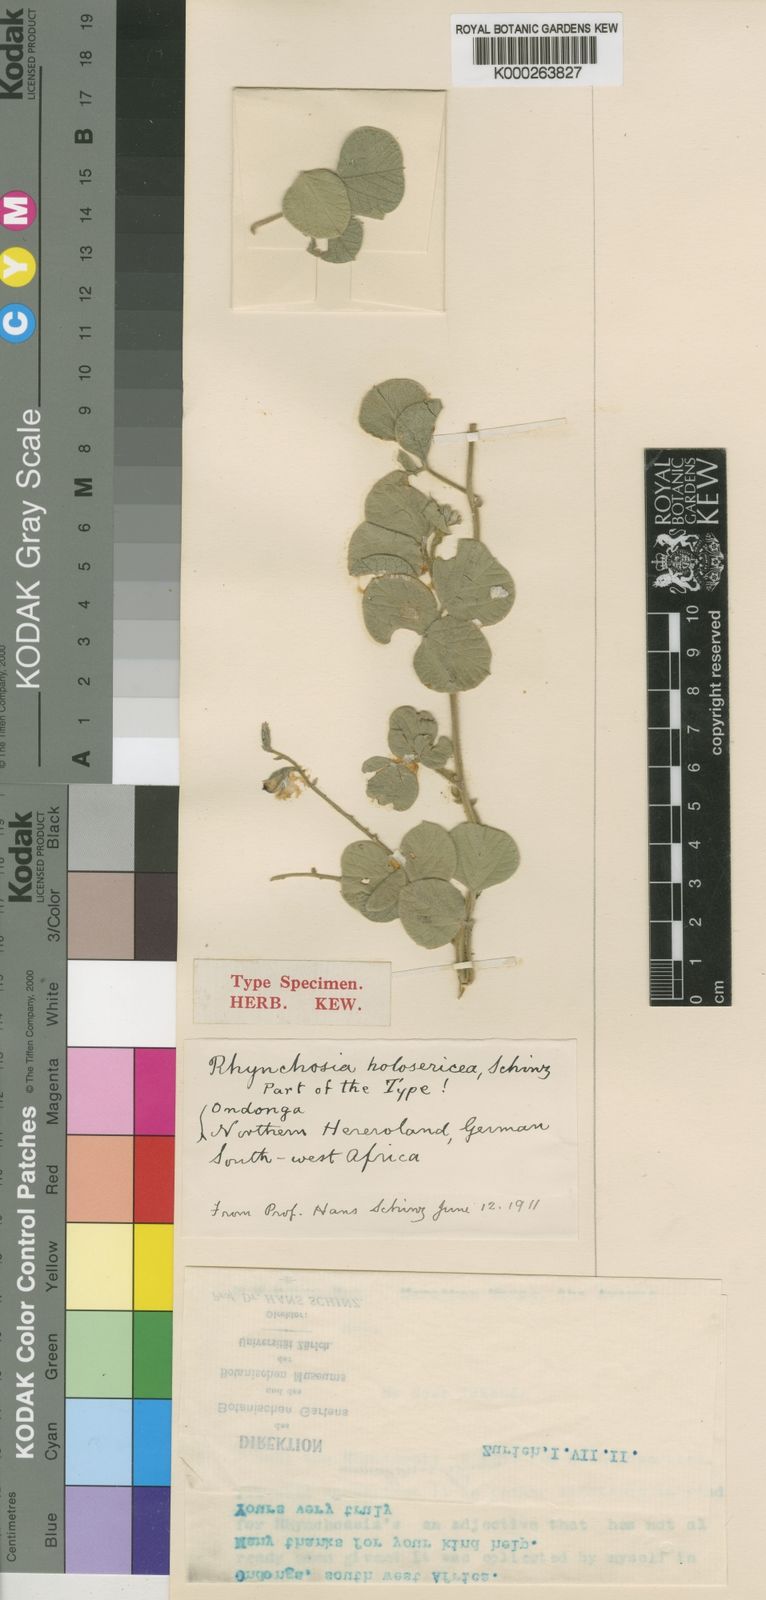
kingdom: Plantae
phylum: Tracheophyta
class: Magnoliopsida
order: Fabales
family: Fabaceae
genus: Rhynchosia
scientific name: Rhynchosia holosericea
